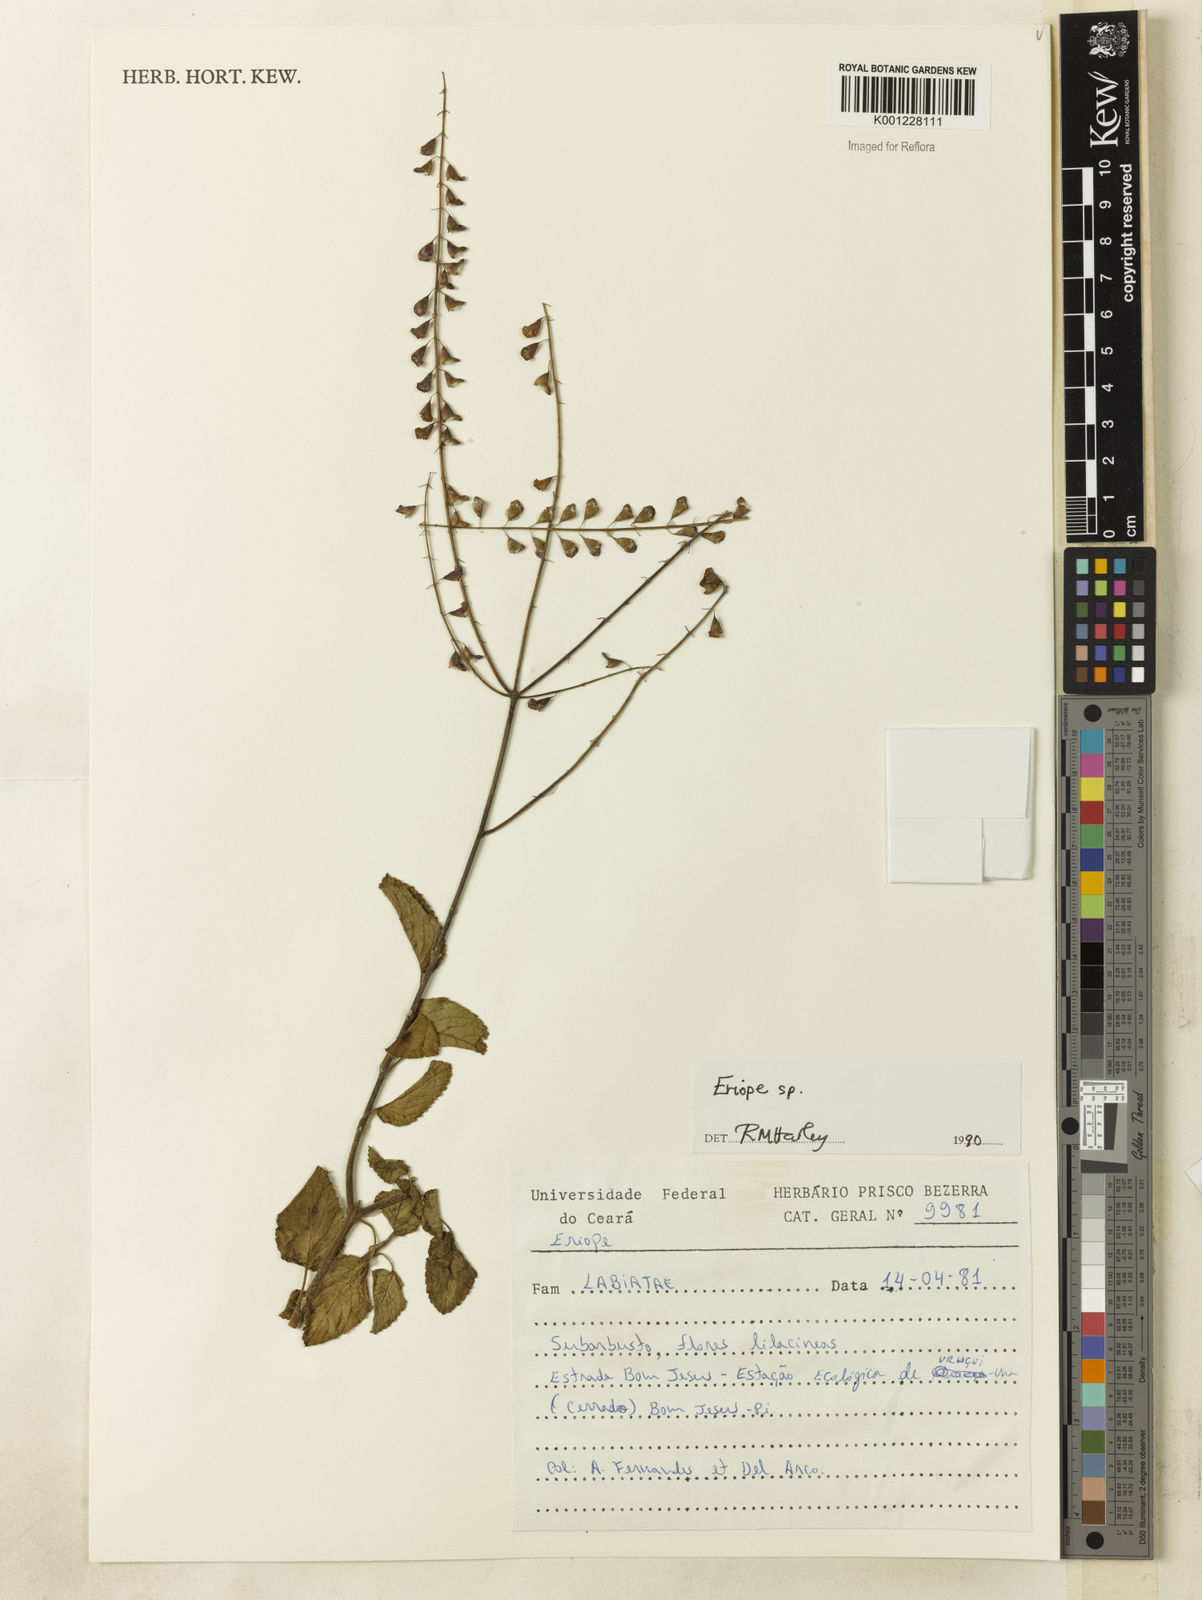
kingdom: Plantae
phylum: Tracheophyta
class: Magnoliopsida
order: Lamiales
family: Lamiaceae
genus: Eriope
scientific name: Eriope
